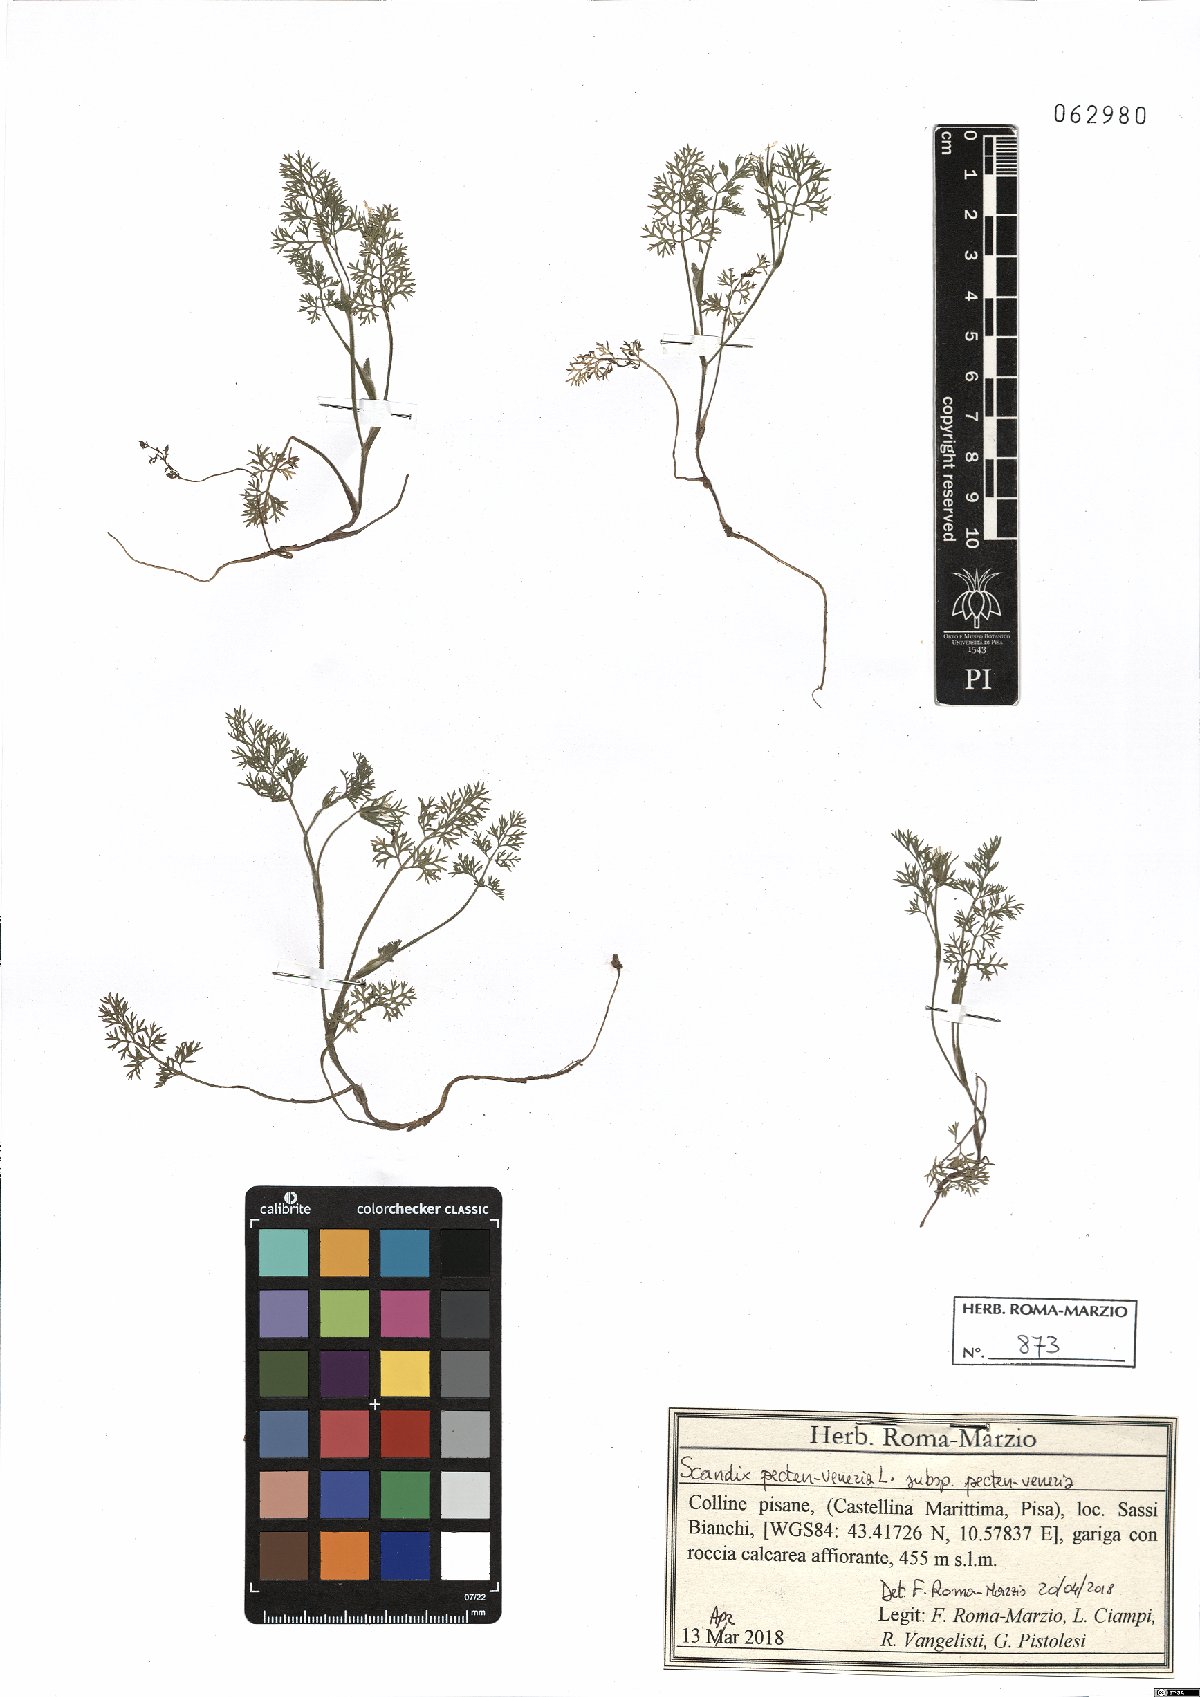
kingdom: Plantae
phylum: Tracheophyta
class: Magnoliopsida
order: Apiales
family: Apiaceae
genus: Scandix
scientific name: Scandix pecten-veneris
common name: Shepherd's-needle
